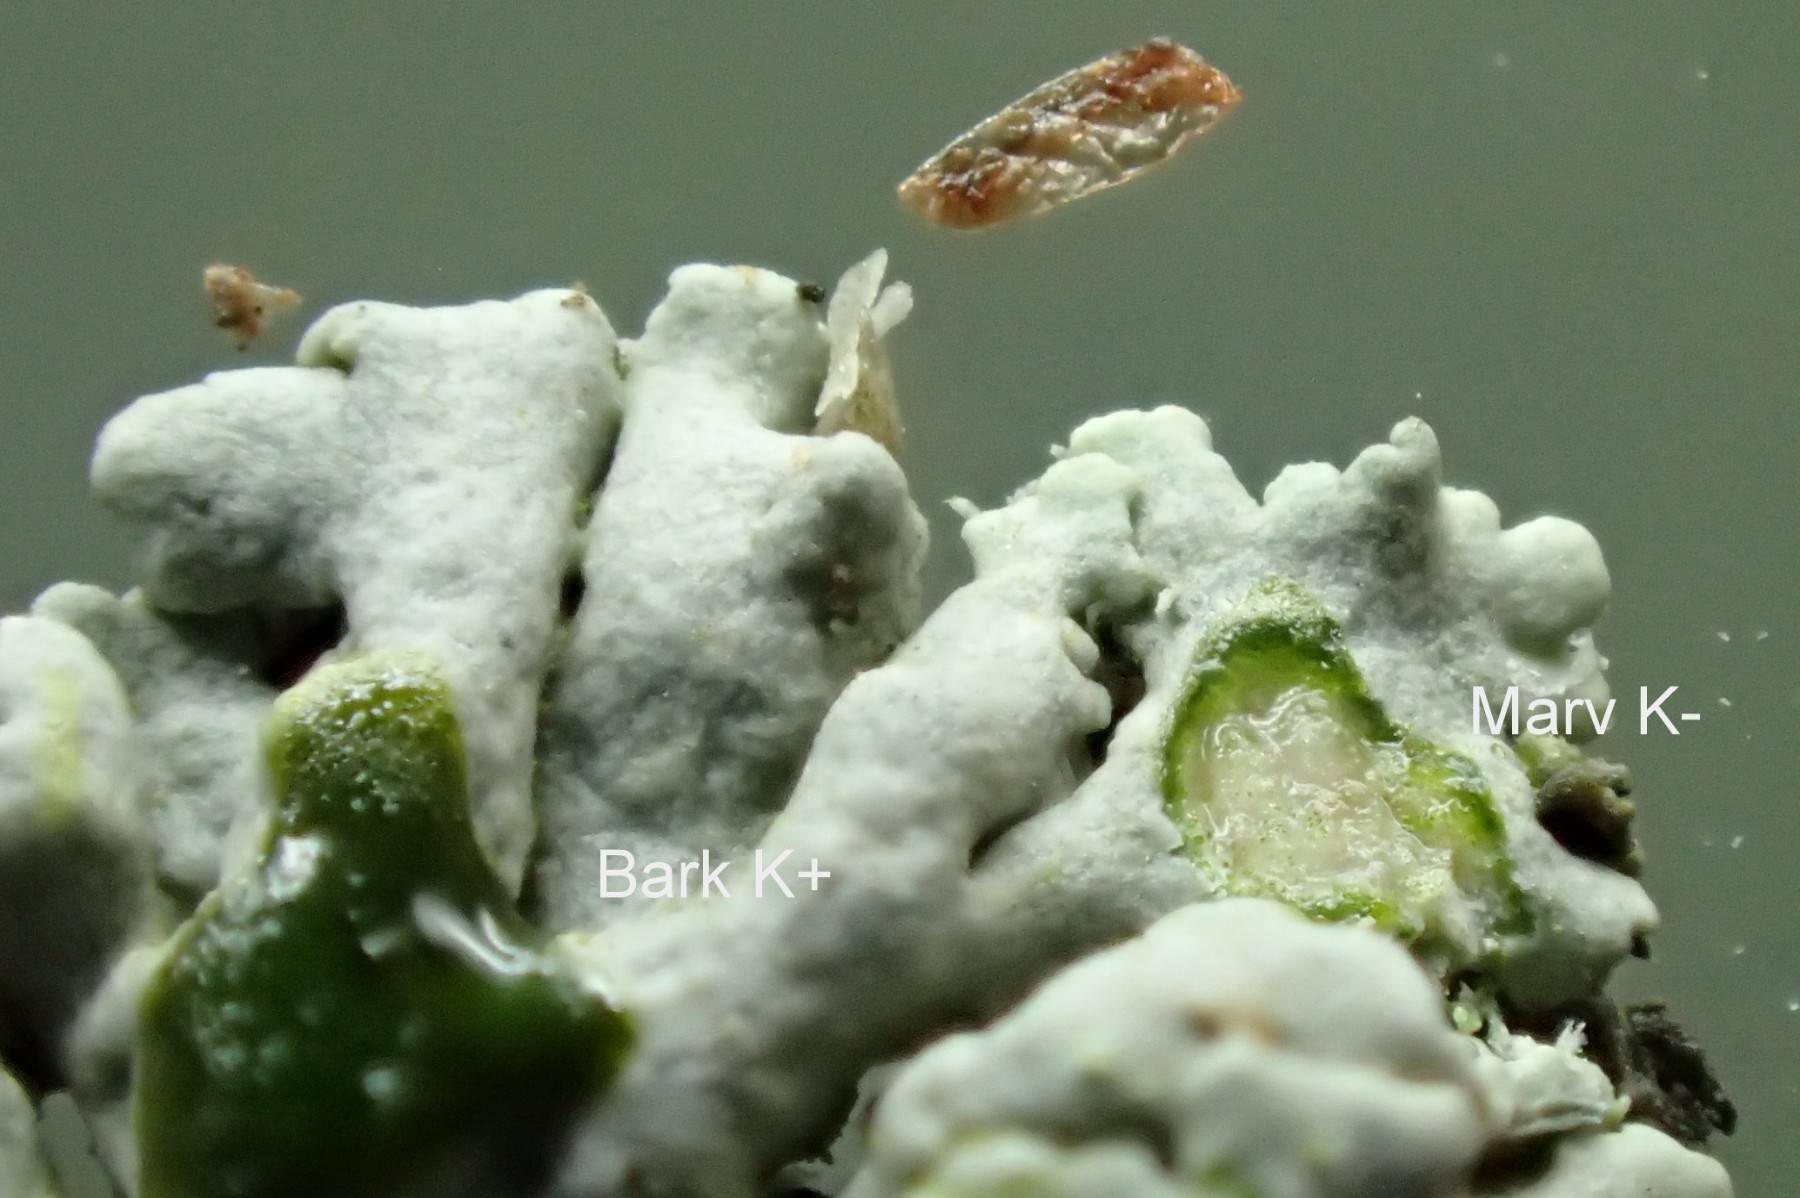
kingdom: Fungi
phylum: Ascomycota
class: Lecanoromycetes
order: Caliciales
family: Physciaceae
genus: Physcia
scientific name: Physcia stellaris
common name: stjerneformet rosetlav
